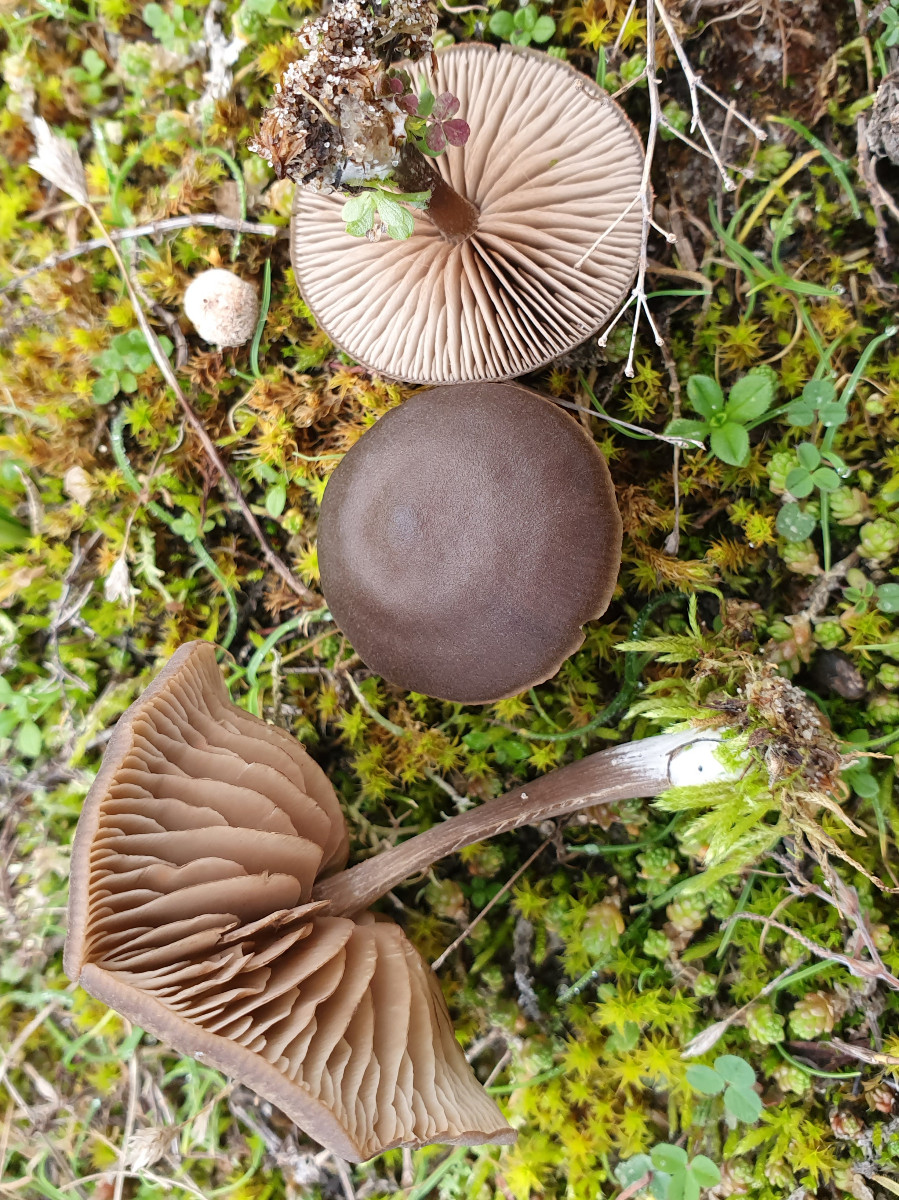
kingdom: Fungi
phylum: Basidiomycota
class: Agaricomycetes
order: Agaricales
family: Entolomataceae
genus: Entoloma
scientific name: Entoloma vindobonense
